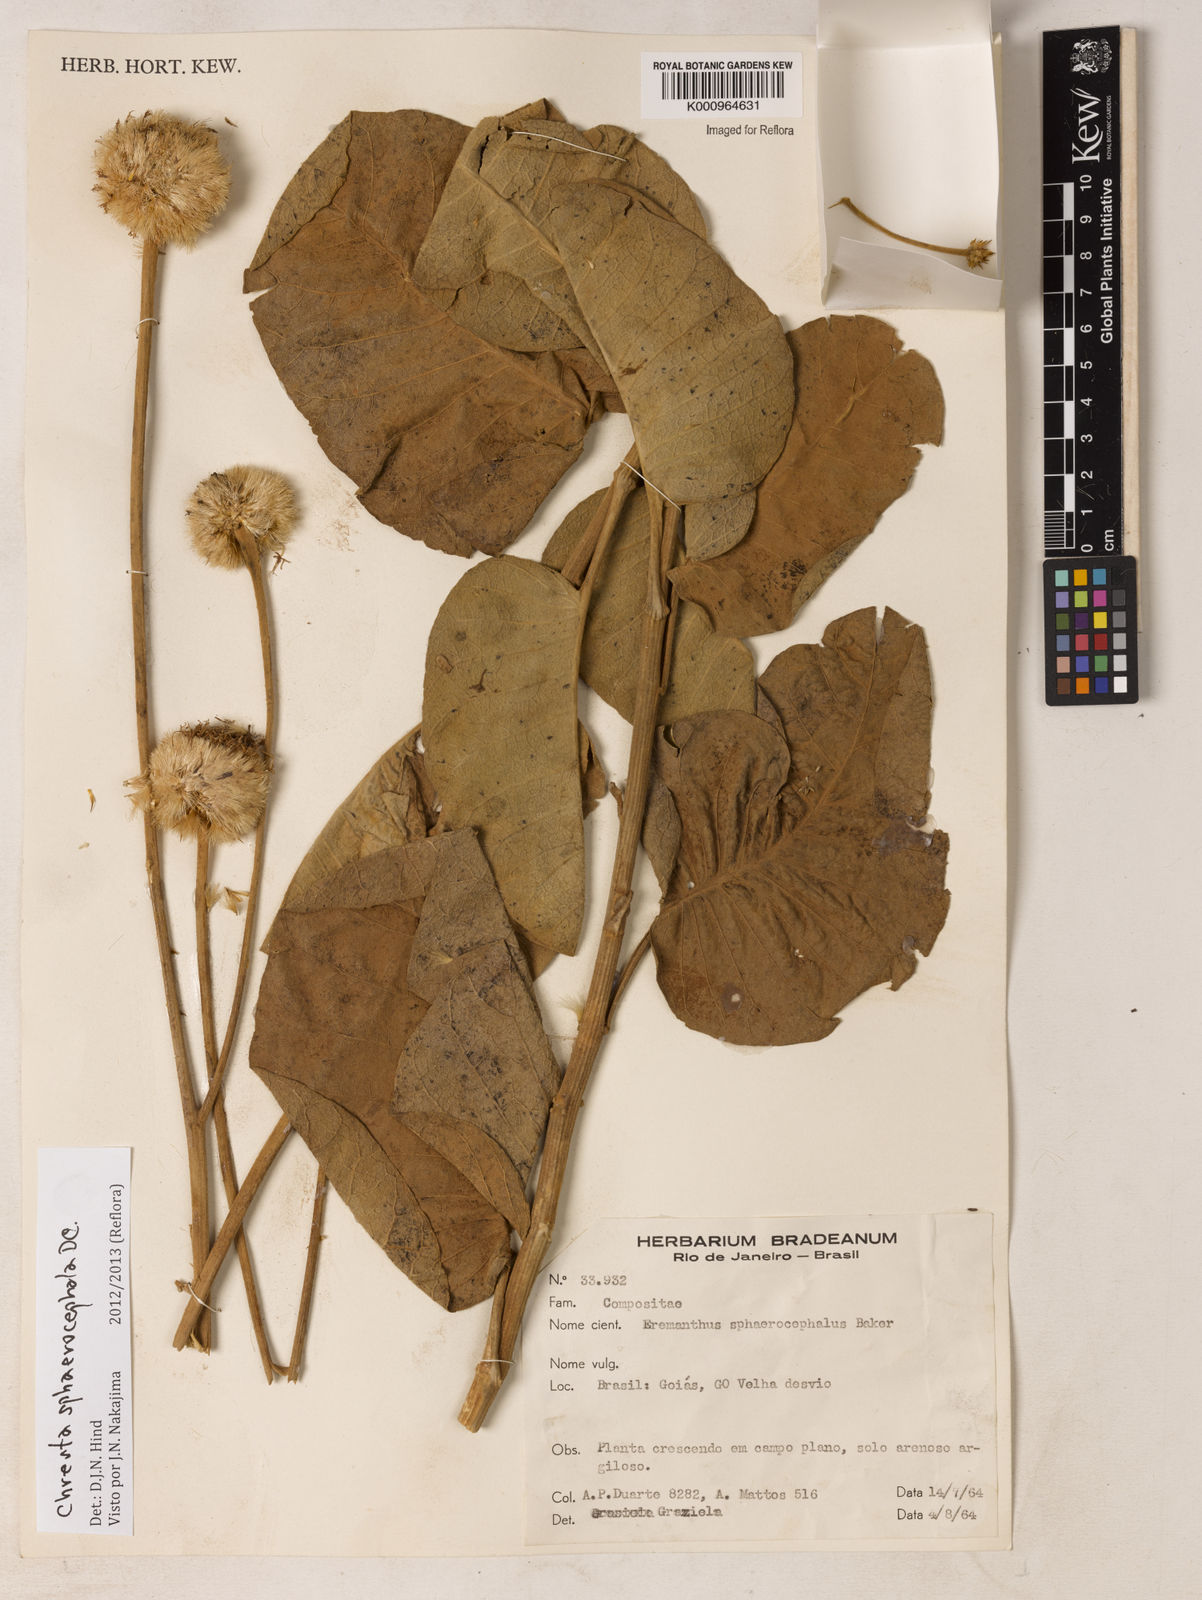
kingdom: Plantae
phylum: Tracheophyta
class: Magnoliopsida
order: Asterales
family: Asteraceae
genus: Chresta
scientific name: Chresta sphaerocephala
